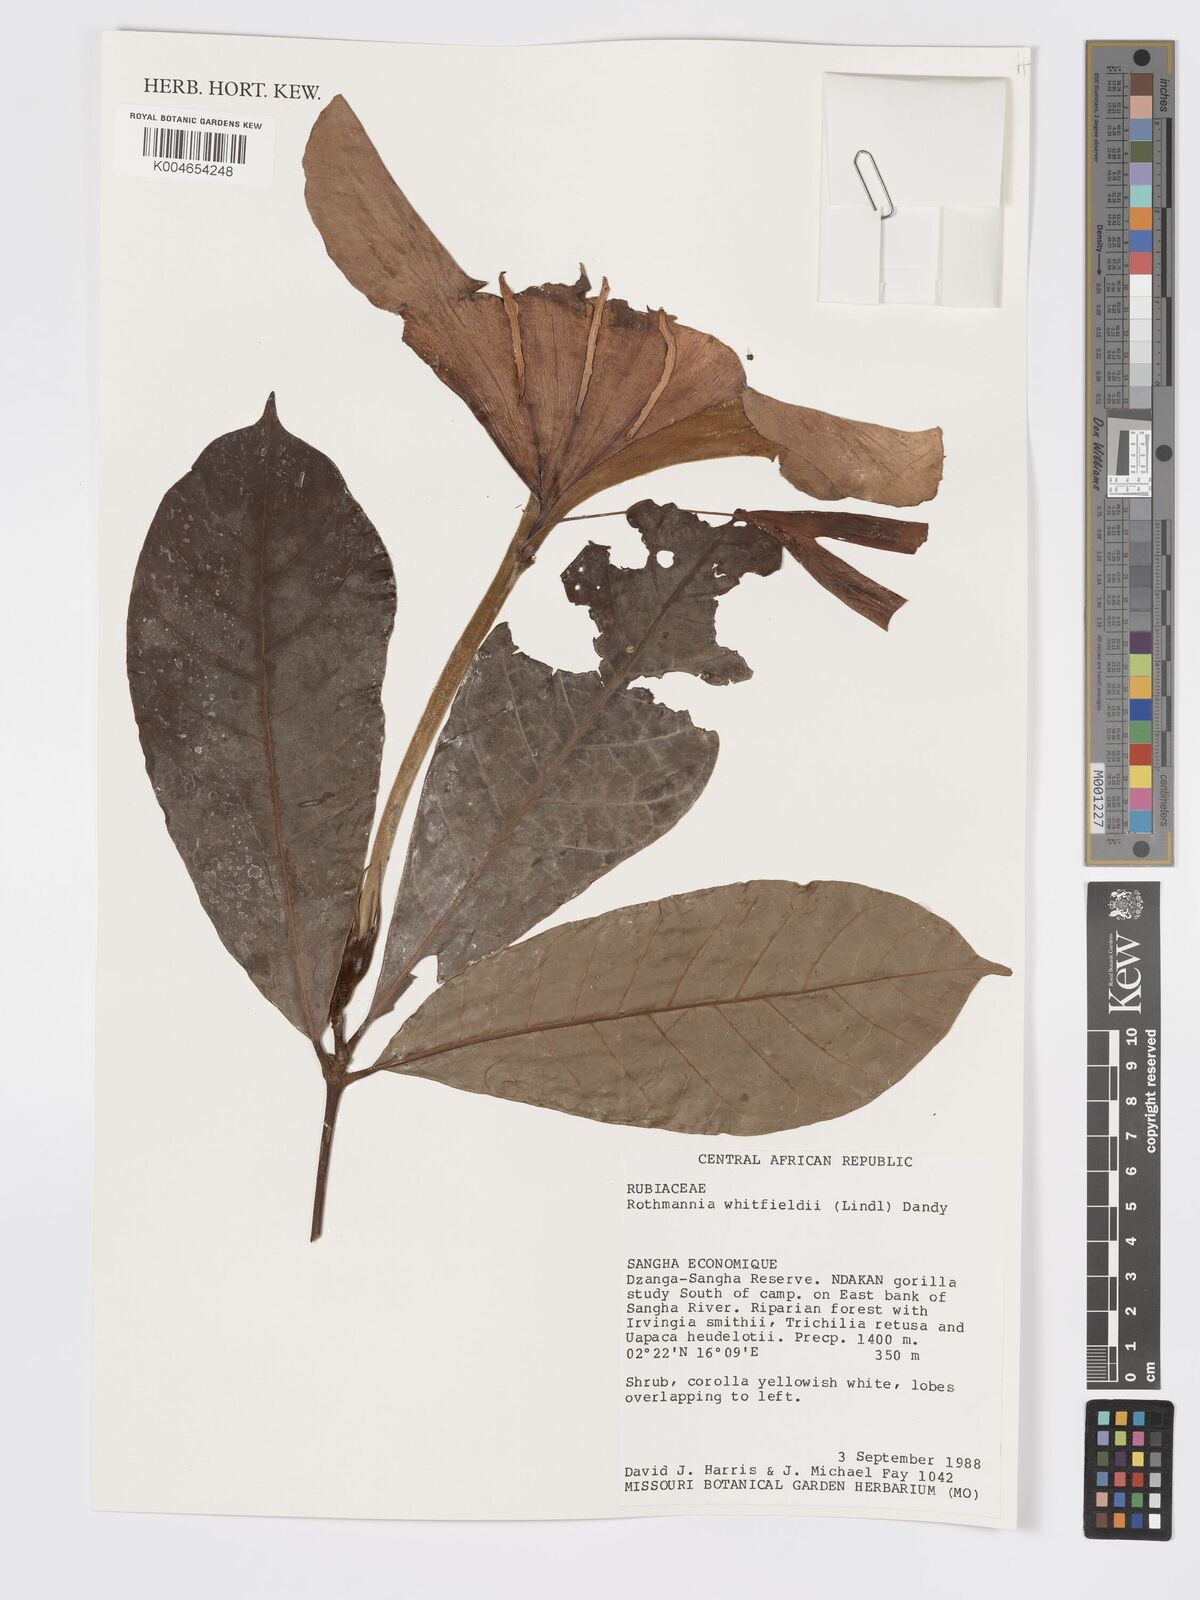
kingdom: Plantae
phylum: Tracheophyta
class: Magnoliopsida
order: Gentianales
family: Rubiaceae
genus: Rothmannia
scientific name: Rothmannia whitfieldii
